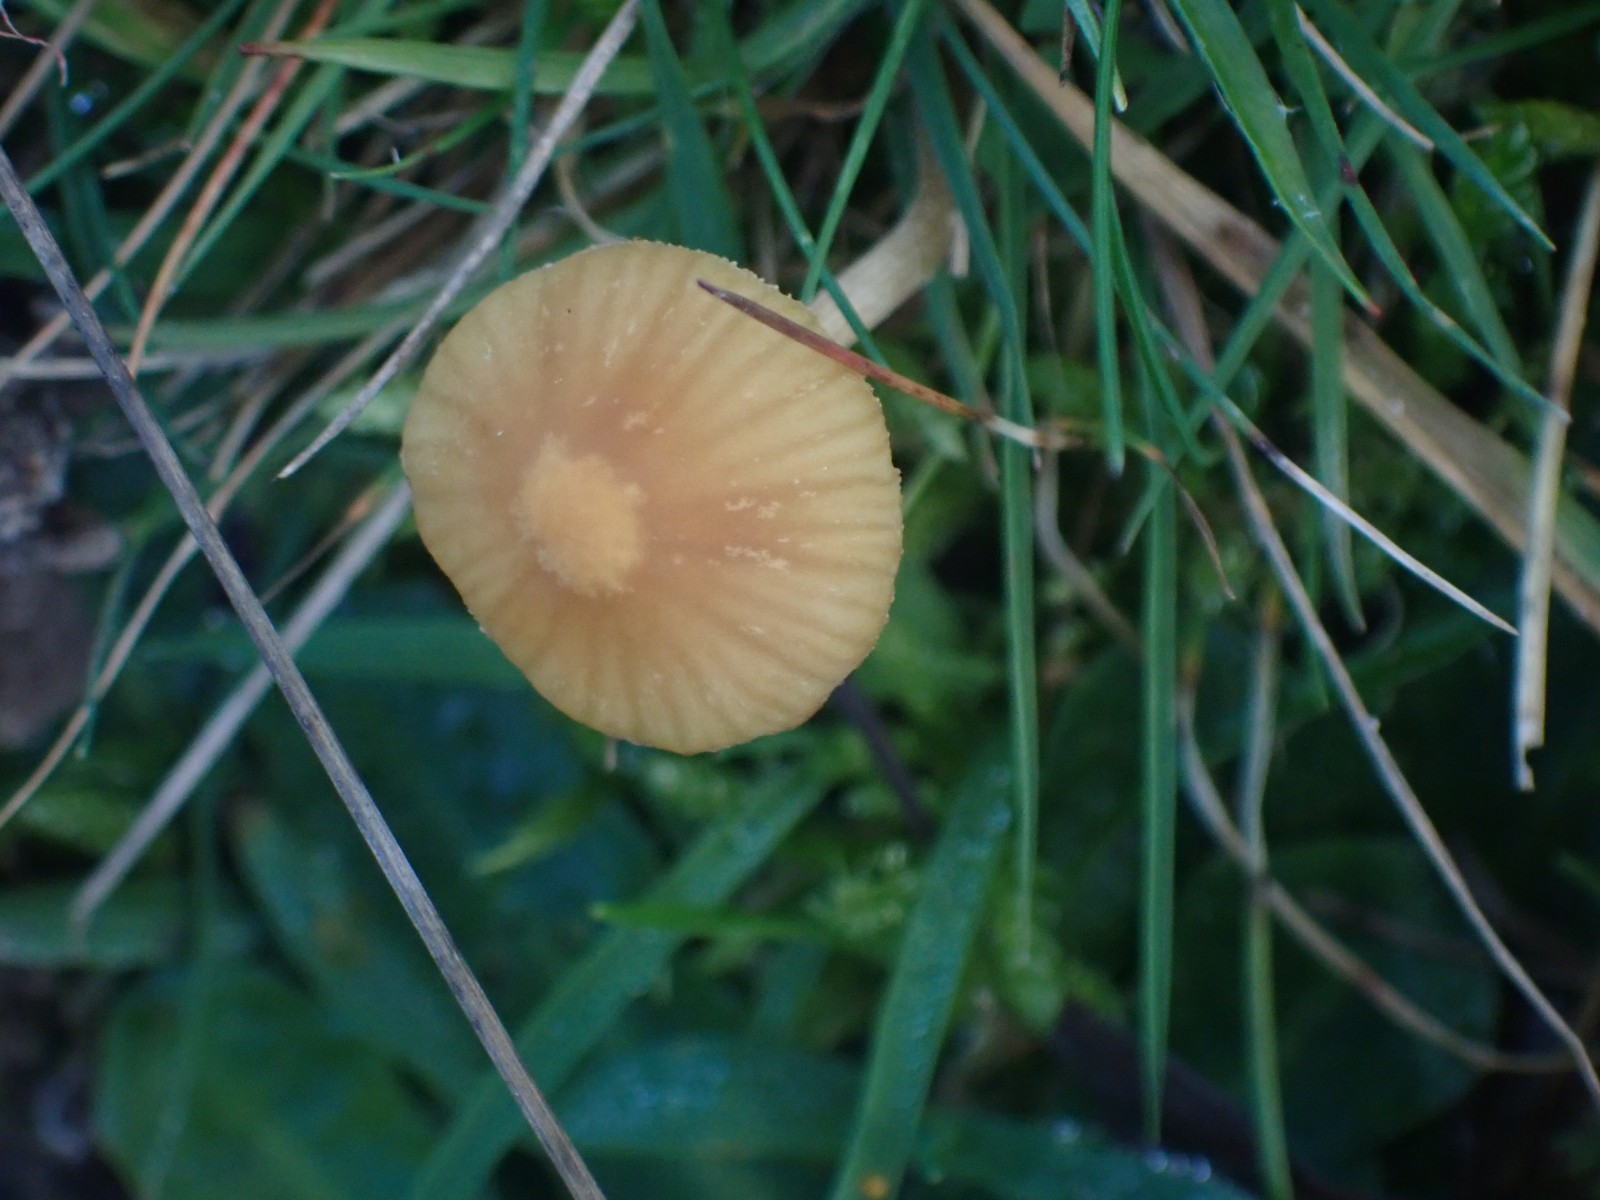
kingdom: Fungi
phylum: Basidiomycota
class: Agaricomycetes
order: Agaricales
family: Hymenogastraceae
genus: Galerina
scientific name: Galerina graminea
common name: plæne-hjelmhat
